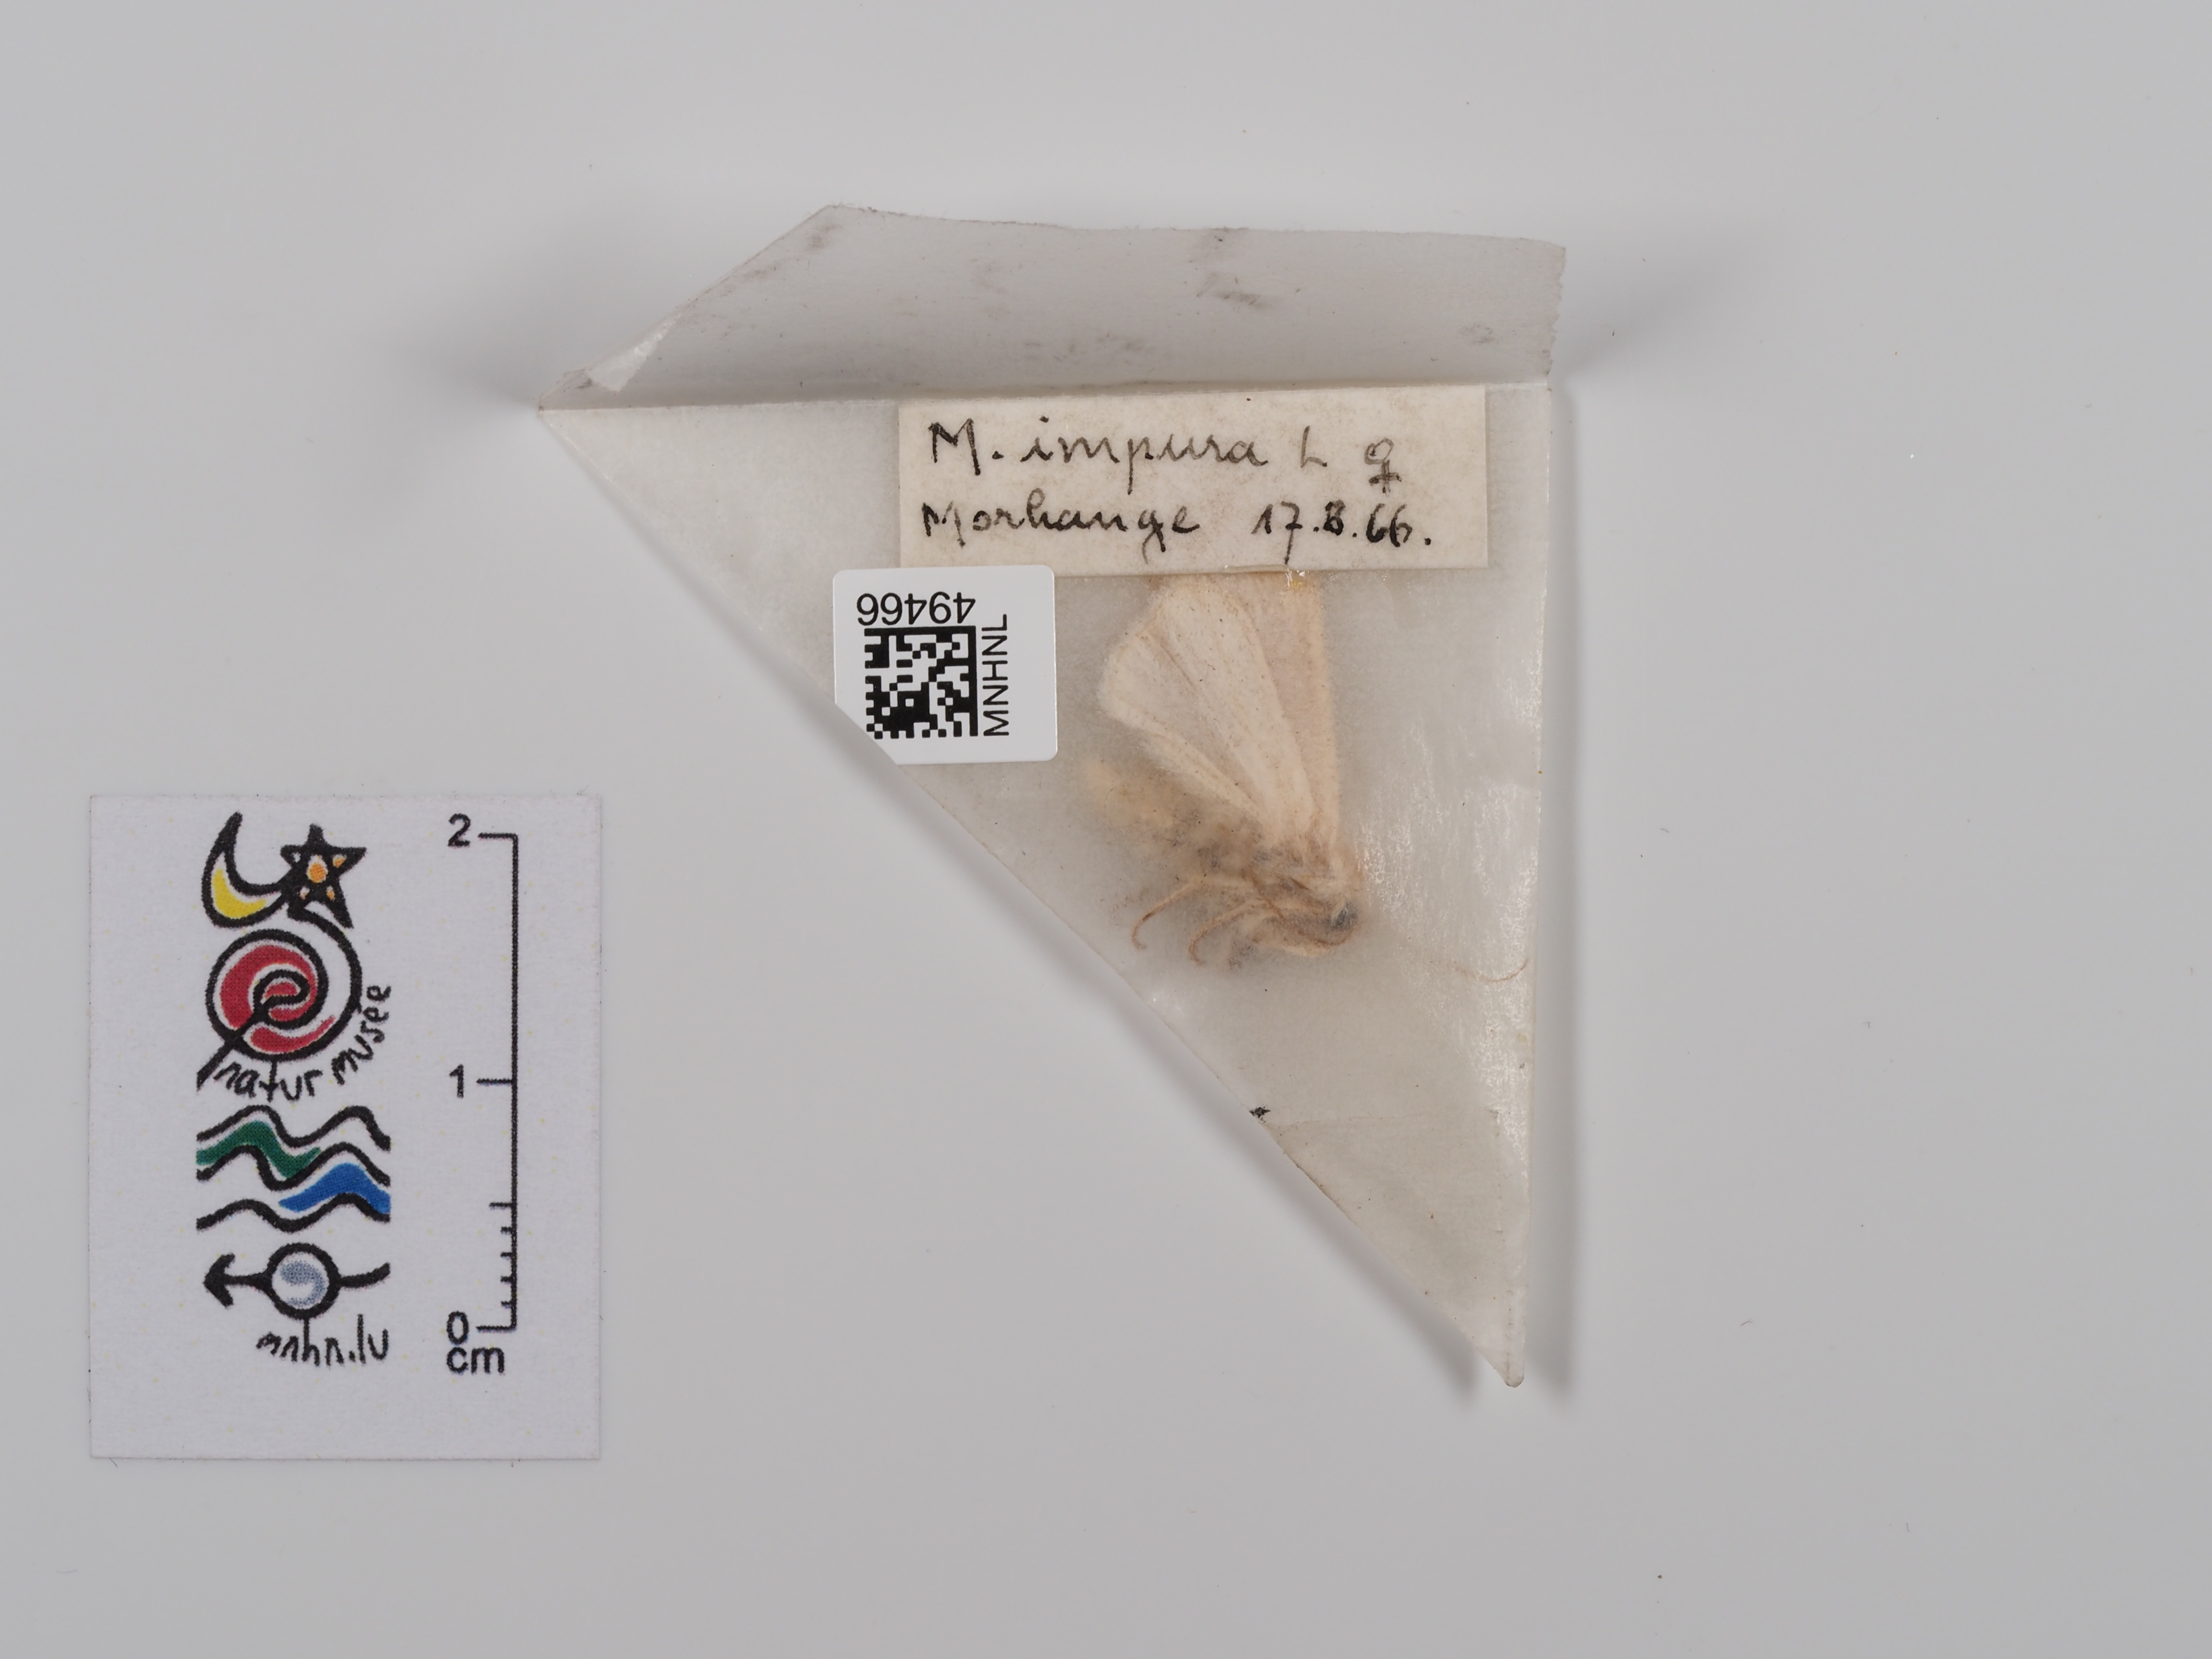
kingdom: Animalia
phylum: Arthropoda
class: Insecta
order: Lepidoptera
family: Noctuidae
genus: Mythimna
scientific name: Mythimna impura
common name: Smoky wainscot
